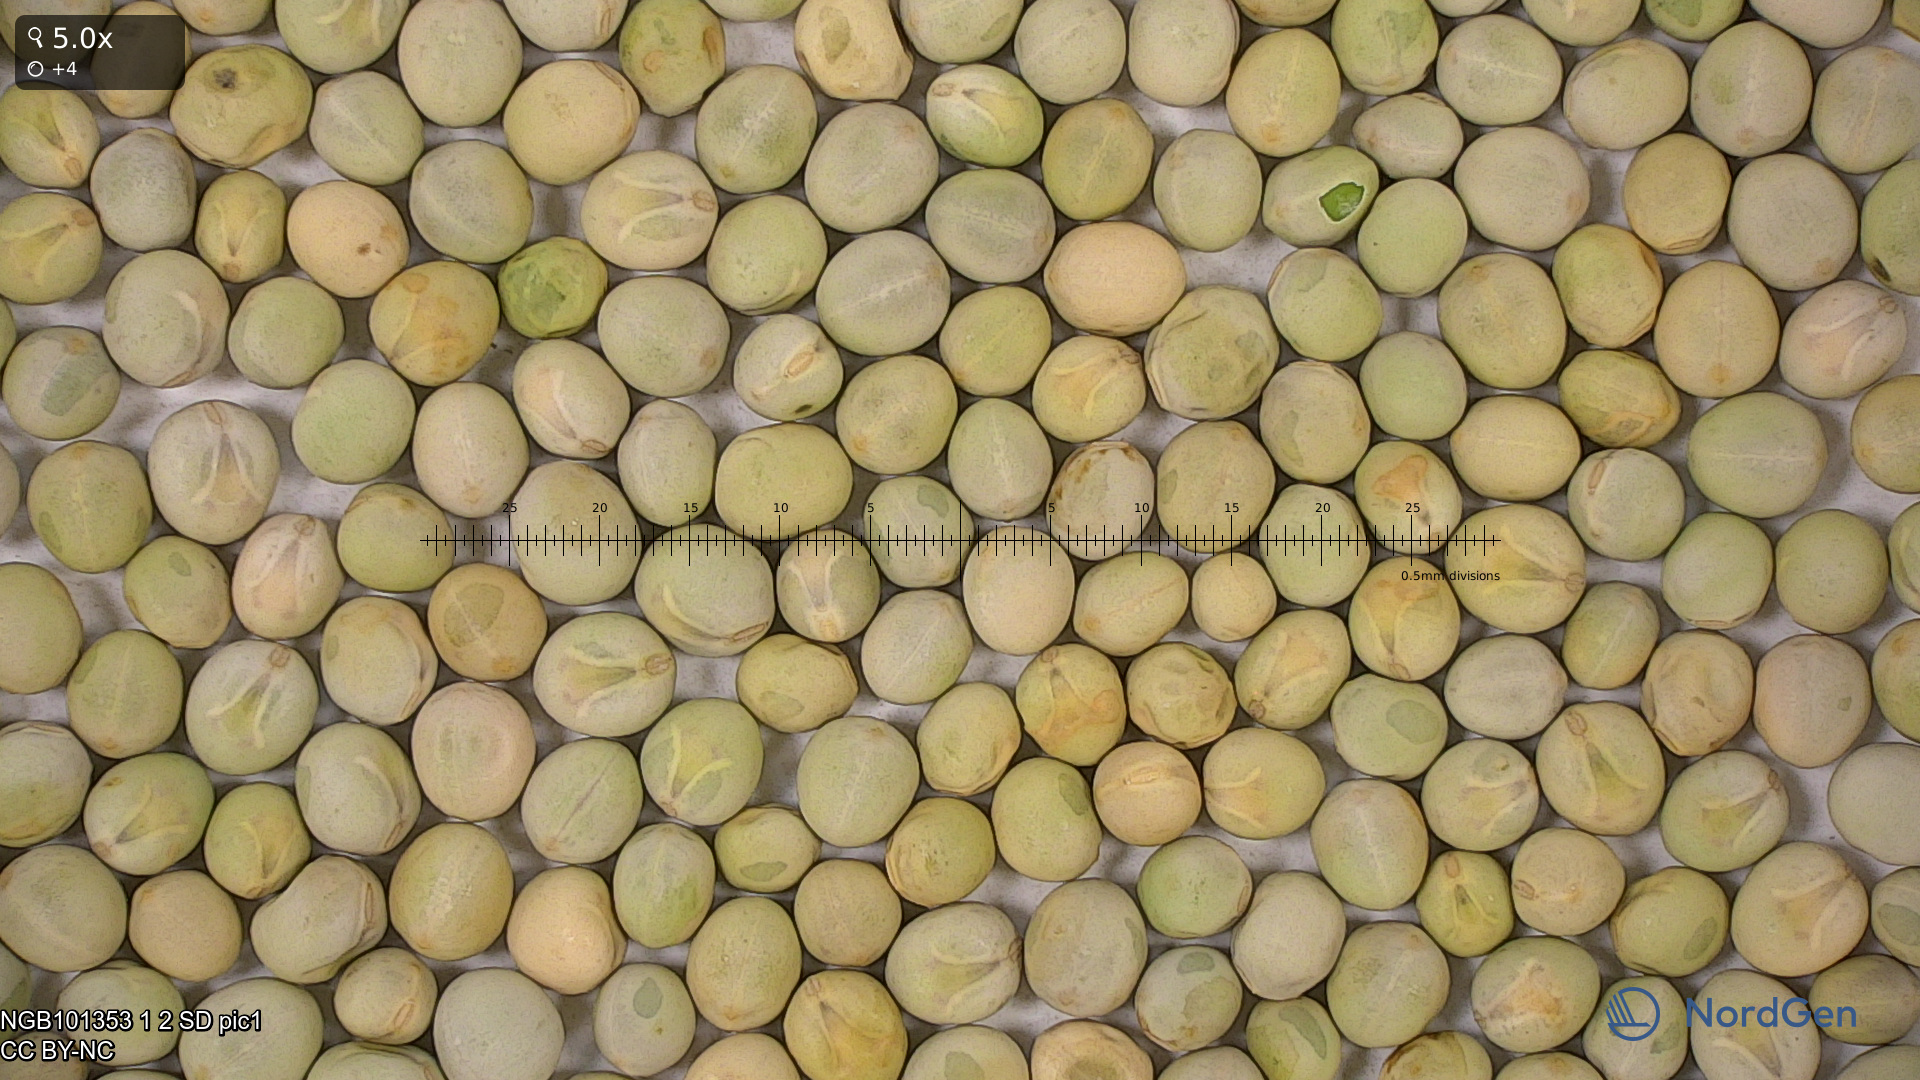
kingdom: Plantae
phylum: Tracheophyta
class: Magnoliopsida
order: Fabales
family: Fabaceae
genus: Lathyrus
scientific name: Lathyrus oleraceus
